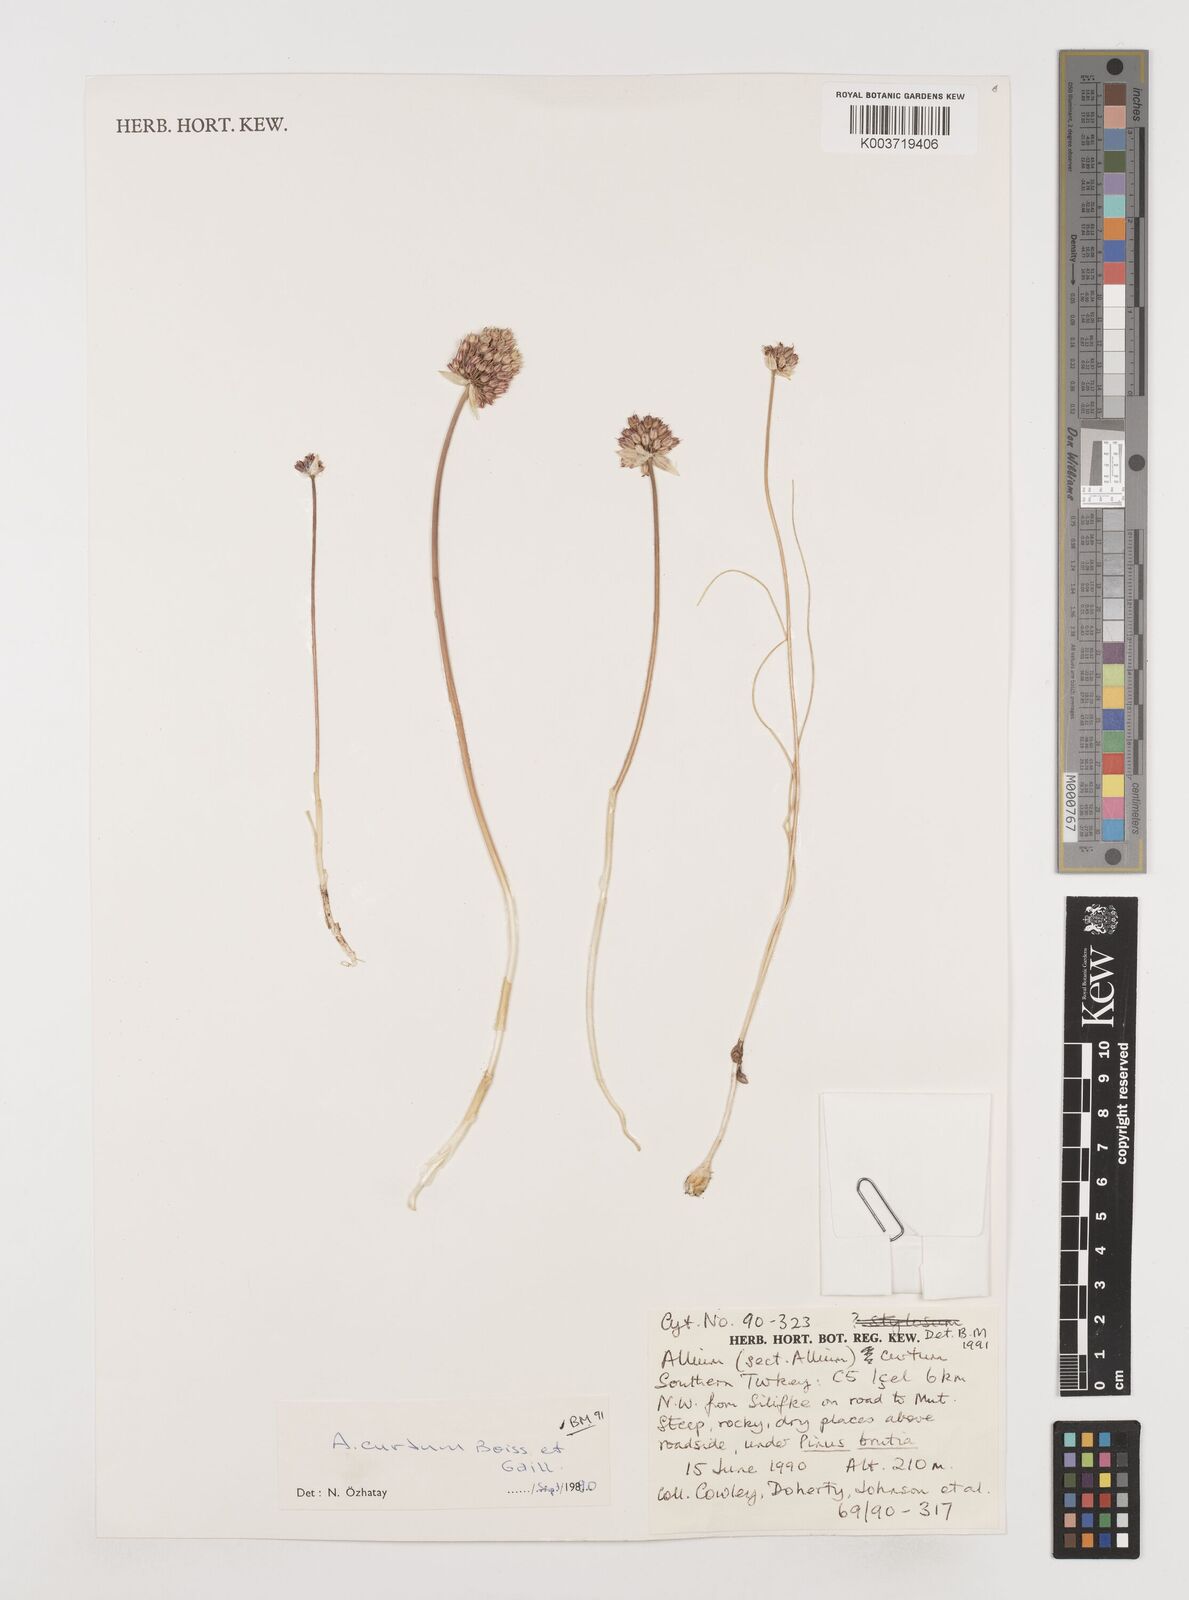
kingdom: Plantae
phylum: Tracheophyta
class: Liliopsida
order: Asparagales
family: Amaryllidaceae
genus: Allium
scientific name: Allium curtum
